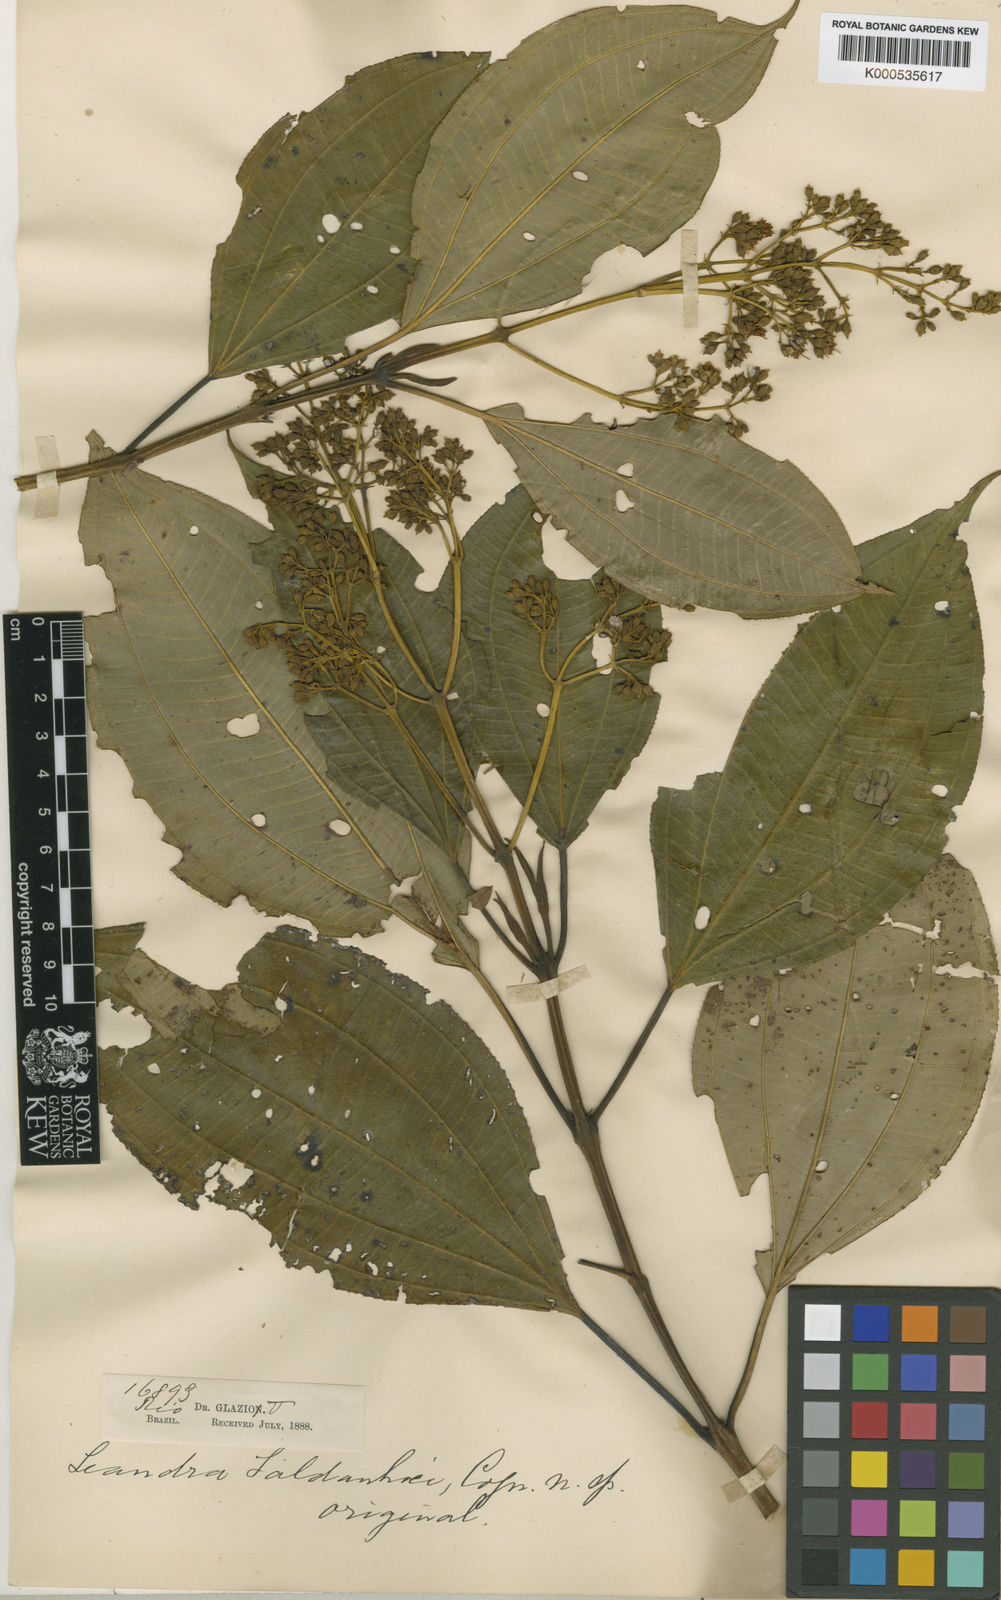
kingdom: Plantae
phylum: Tracheophyta
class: Magnoliopsida
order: Myrtales
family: Melastomataceae
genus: Miconia
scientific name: Miconia leasaldanhae
